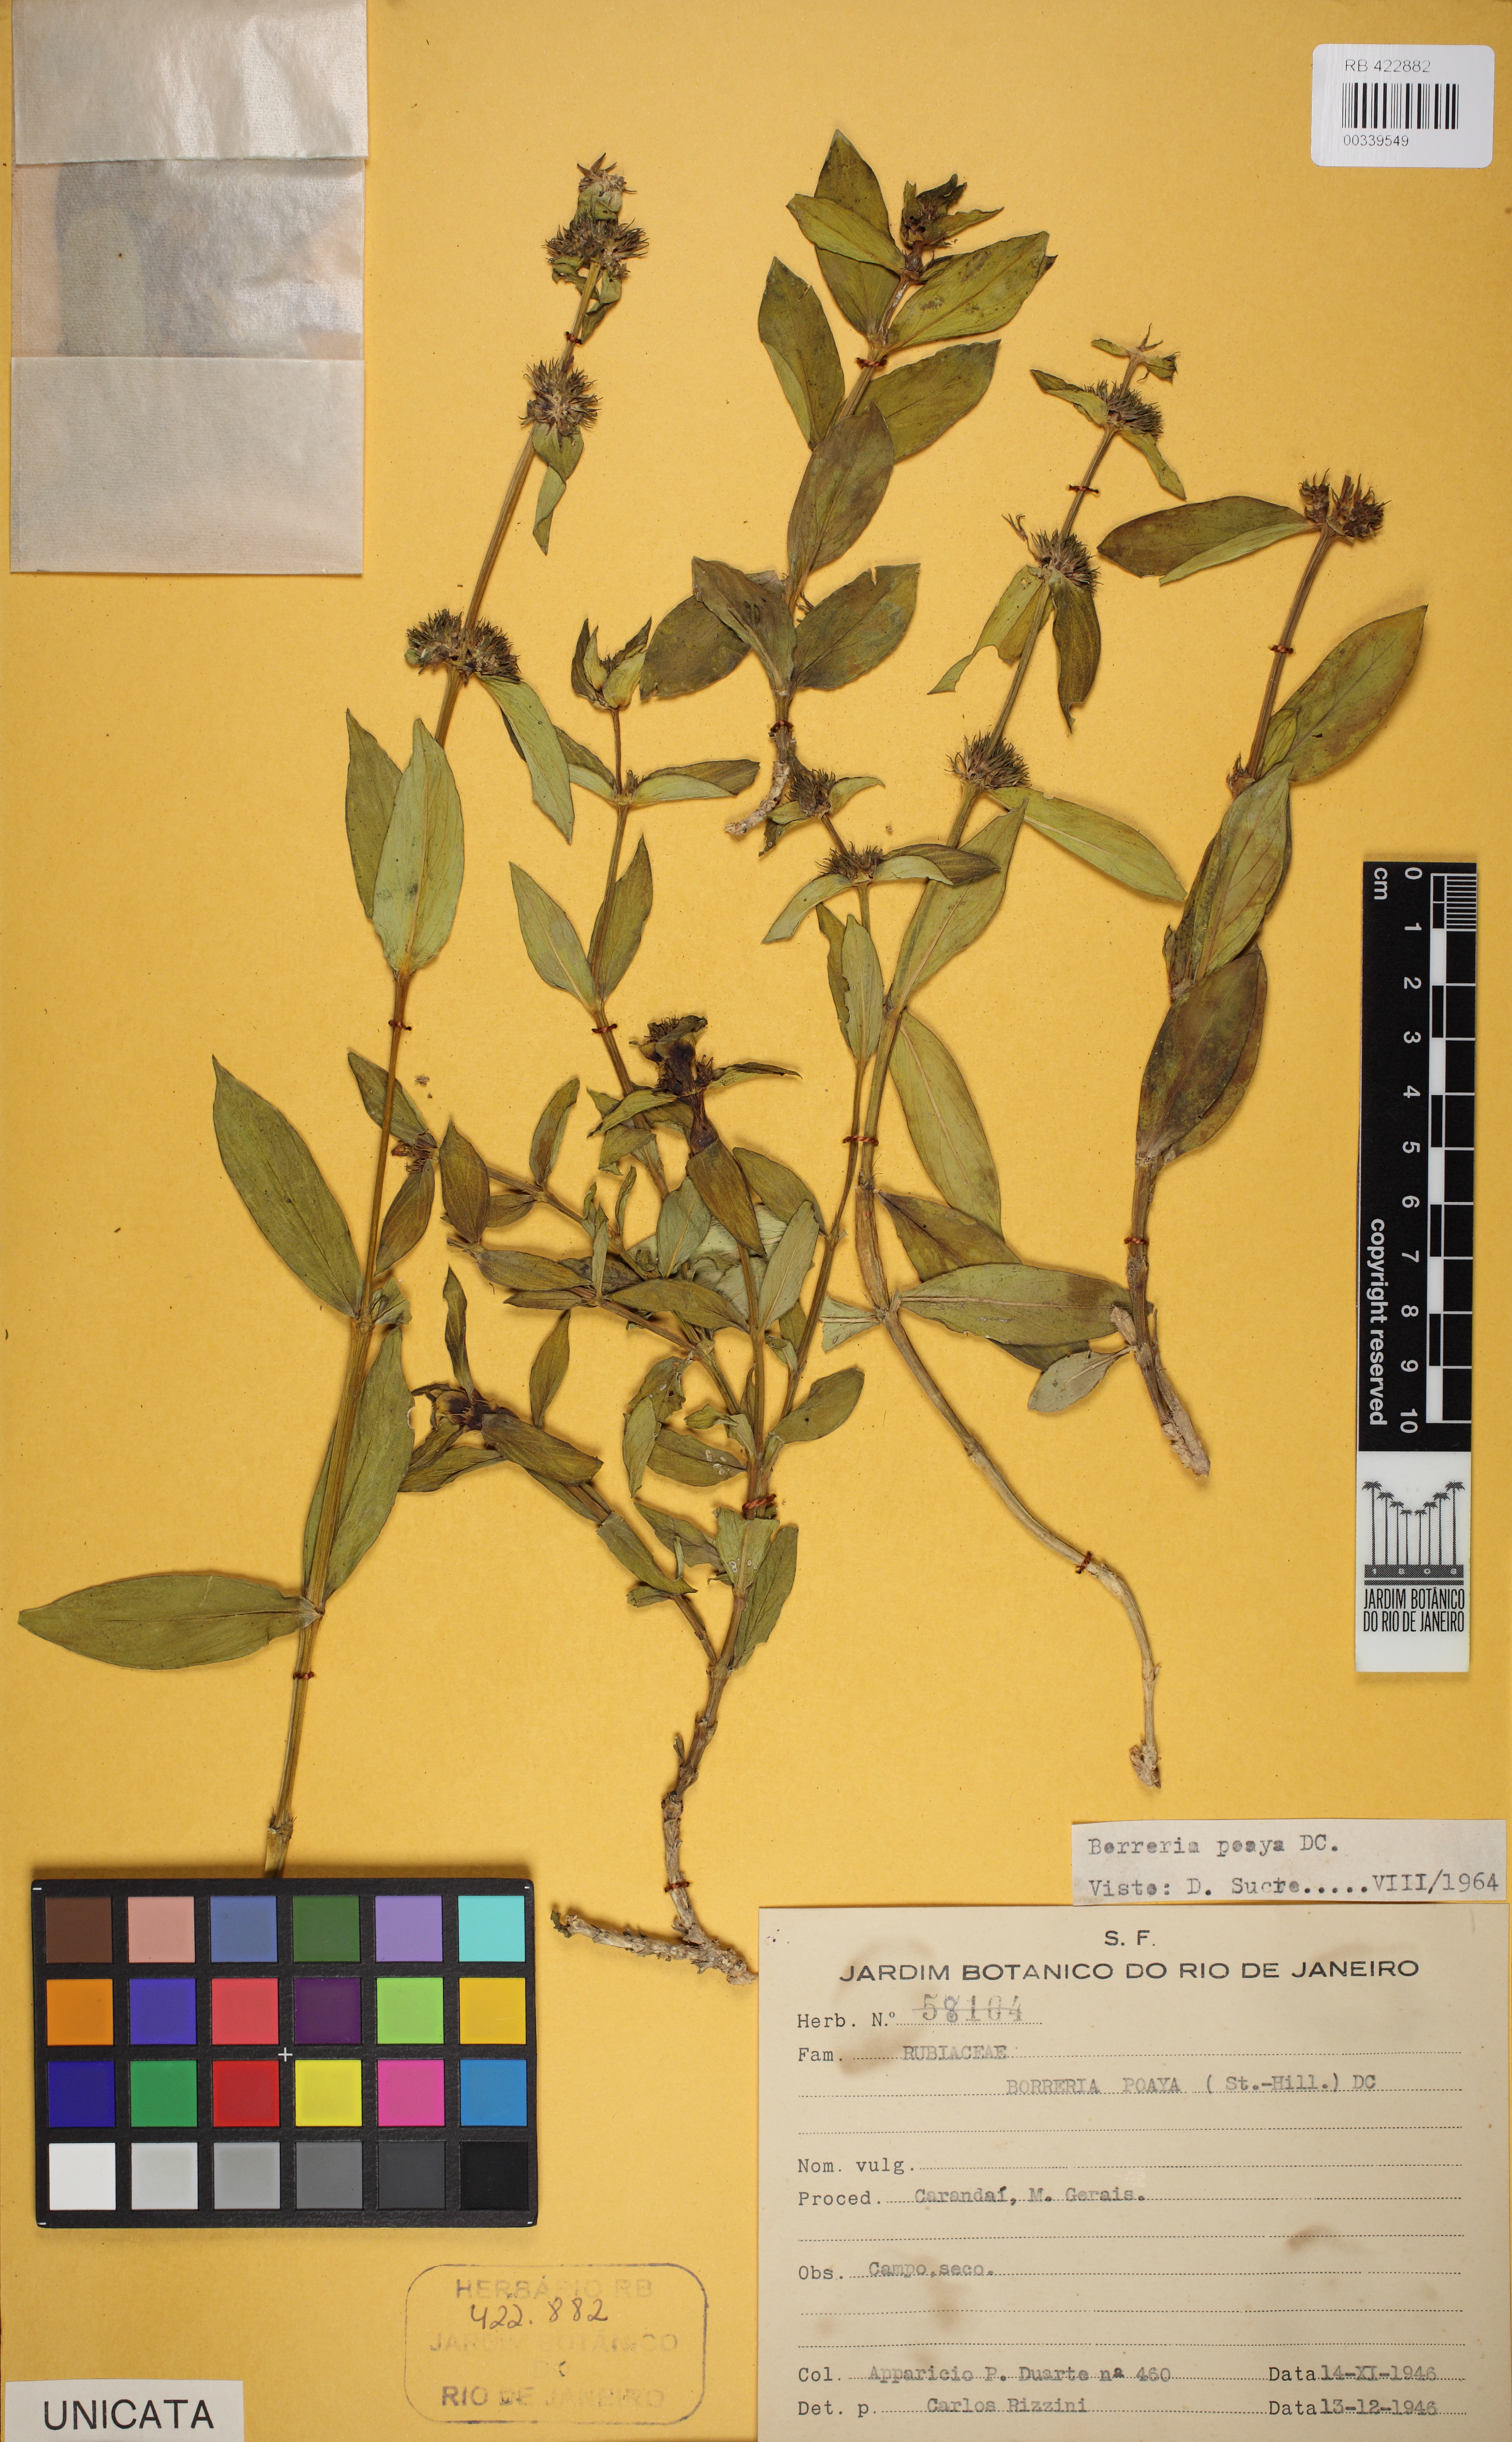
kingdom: Plantae
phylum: Tracheophyta
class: Magnoliopsida
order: Gentianales
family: Rubiaceae
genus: Spermacoce
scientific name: Spermacoce poaya
